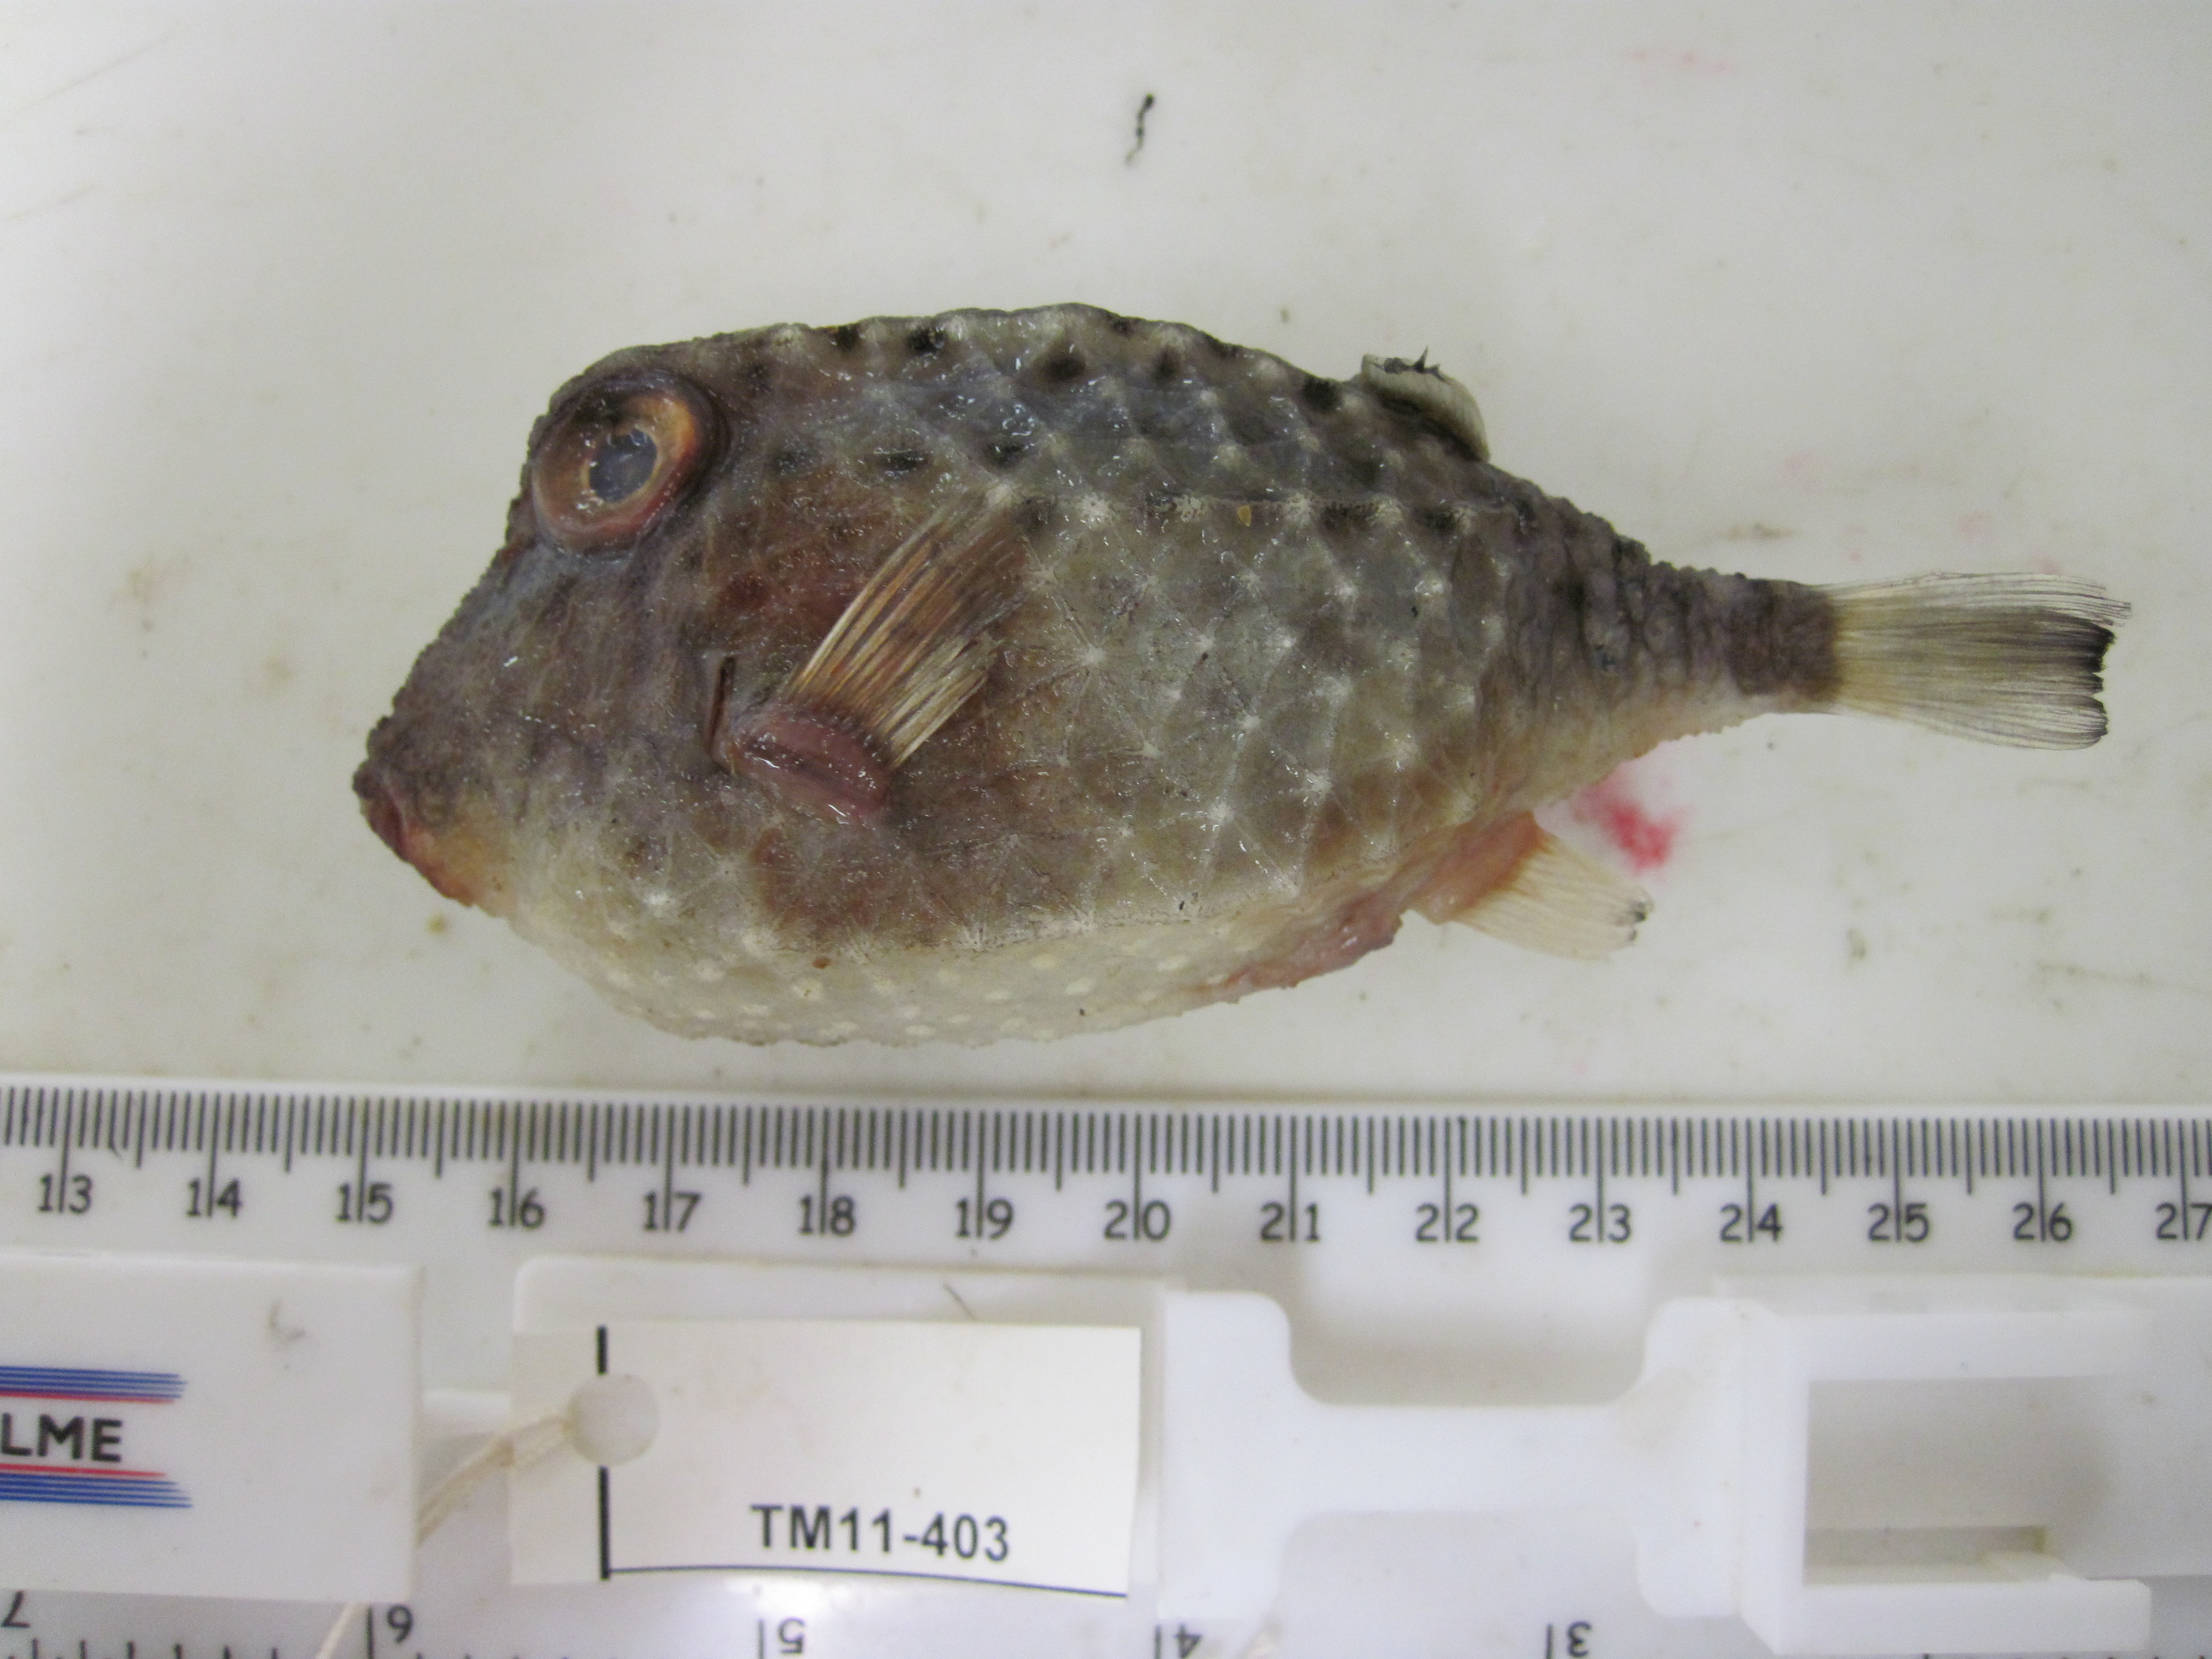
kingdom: Animalia
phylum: Chordata
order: Tetraodontiformes
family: Aracanidae
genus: Kentrocapros
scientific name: Kentrocapros rosapinto
